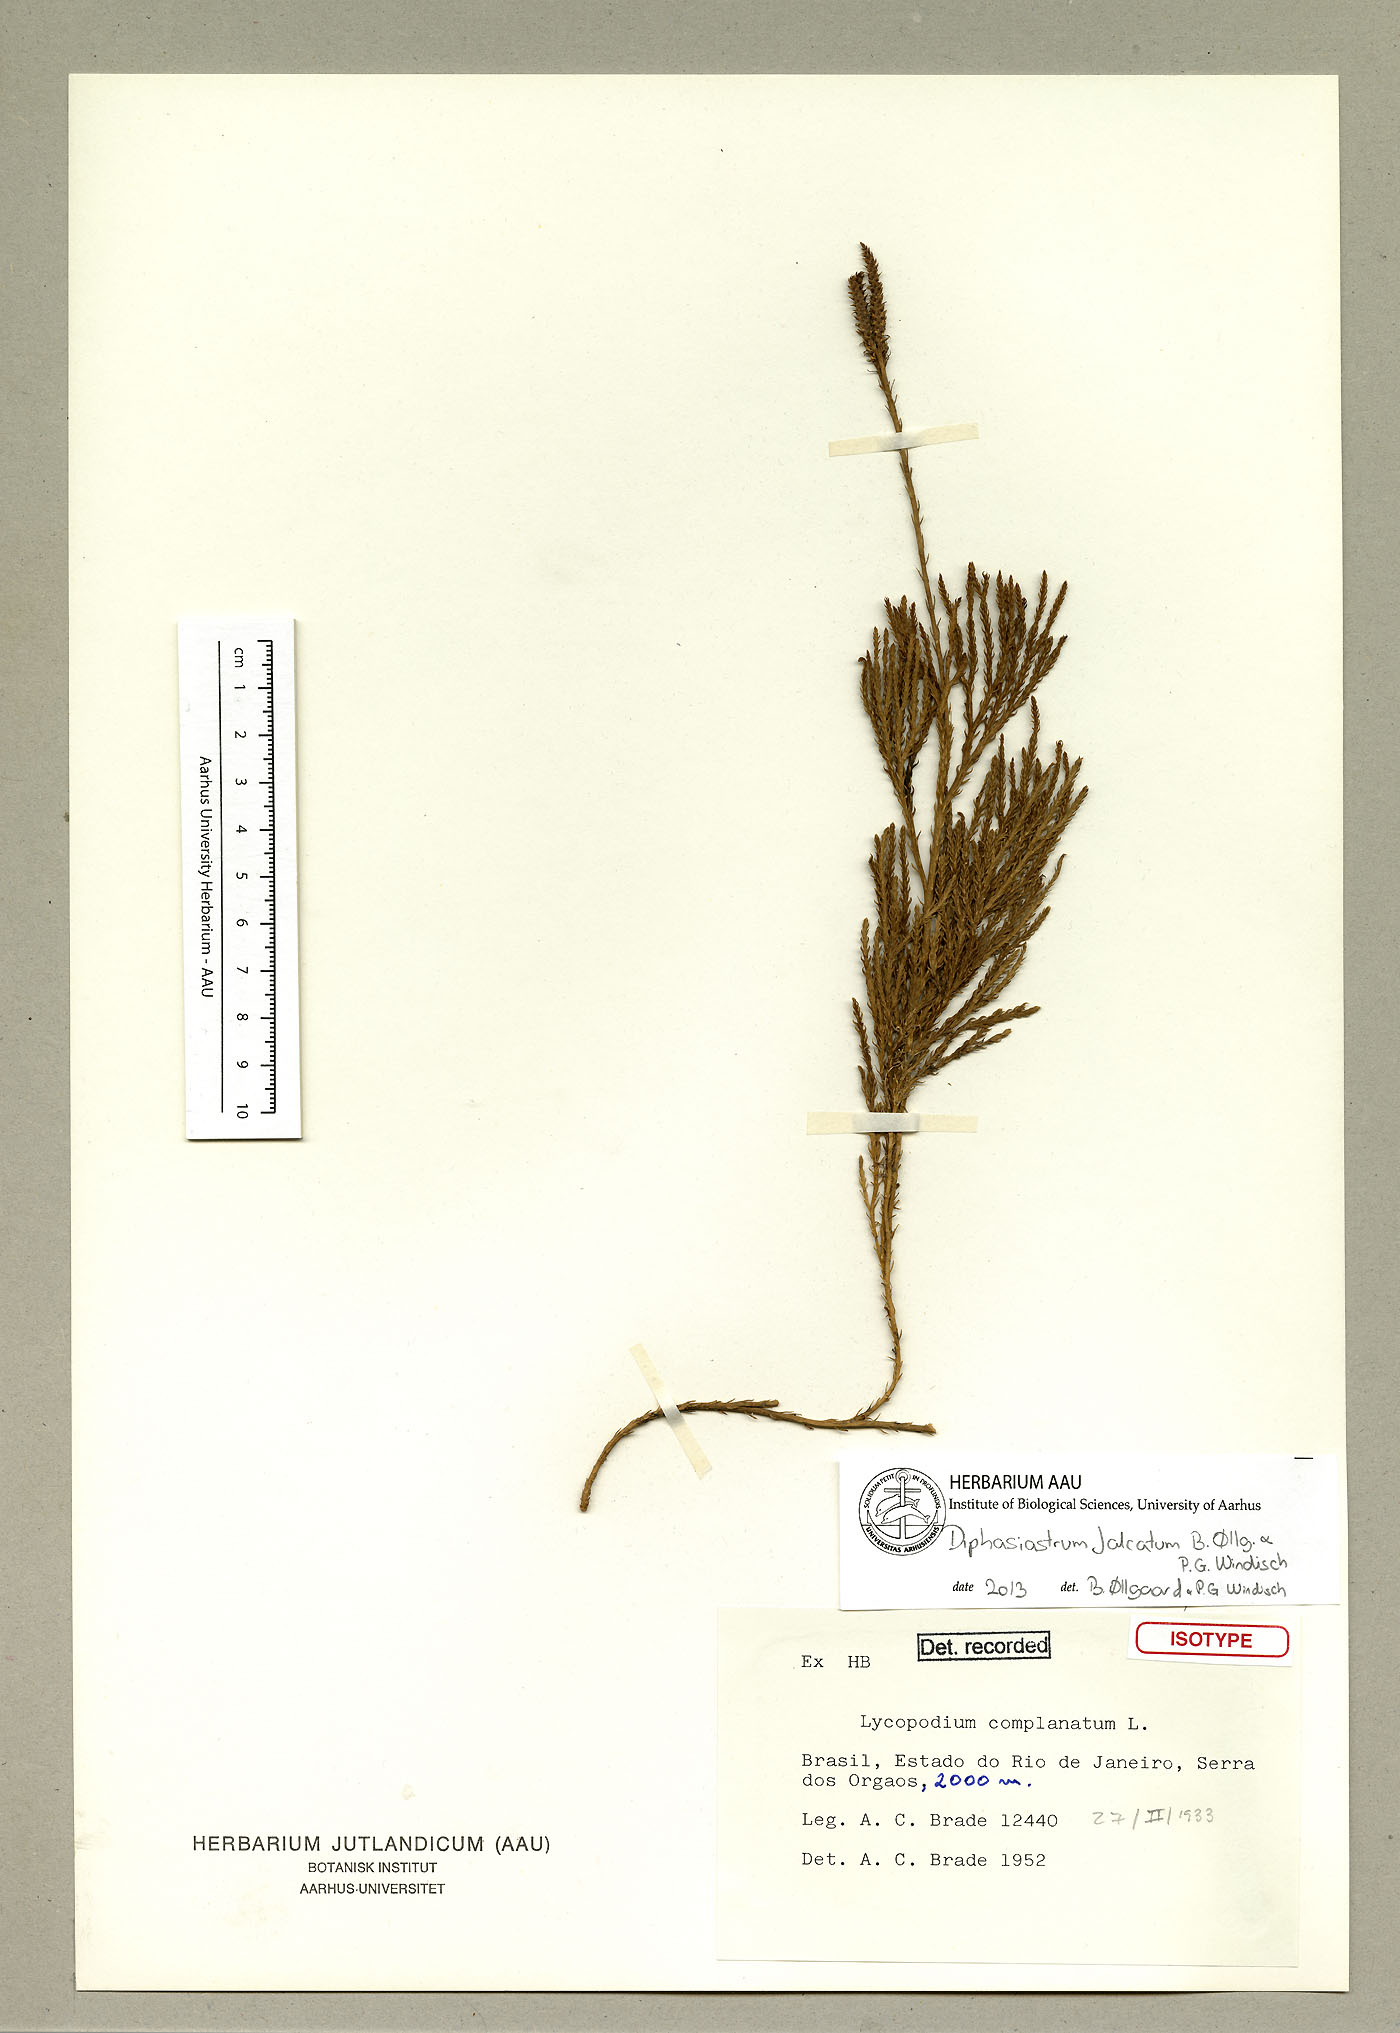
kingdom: Plantae
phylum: Tracheophyta
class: Lycopodiopsida
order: Lycopodiales
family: Lycopodiaceae
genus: Diphasiastrum
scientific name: Diphasiastrum falcatum
